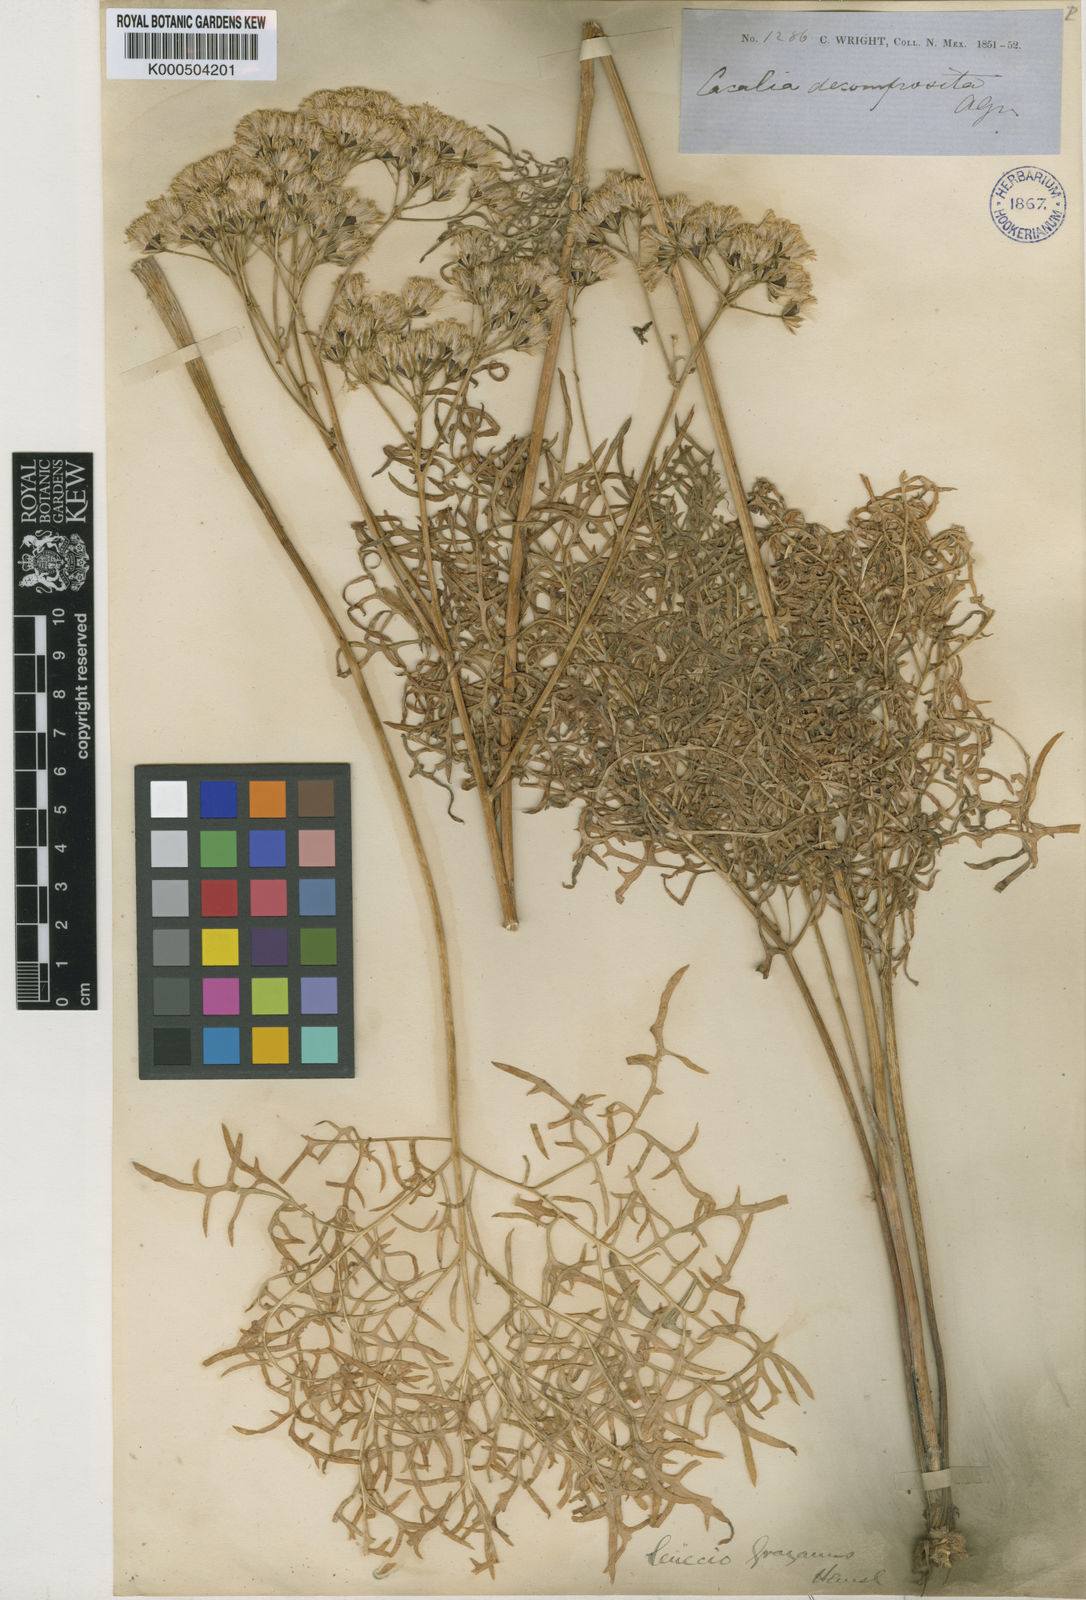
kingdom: Plantae
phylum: Tracheophyta
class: Magnoliopsida
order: Asterales
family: Asteraceae
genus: Psacalium
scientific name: Psacalium decompositum
